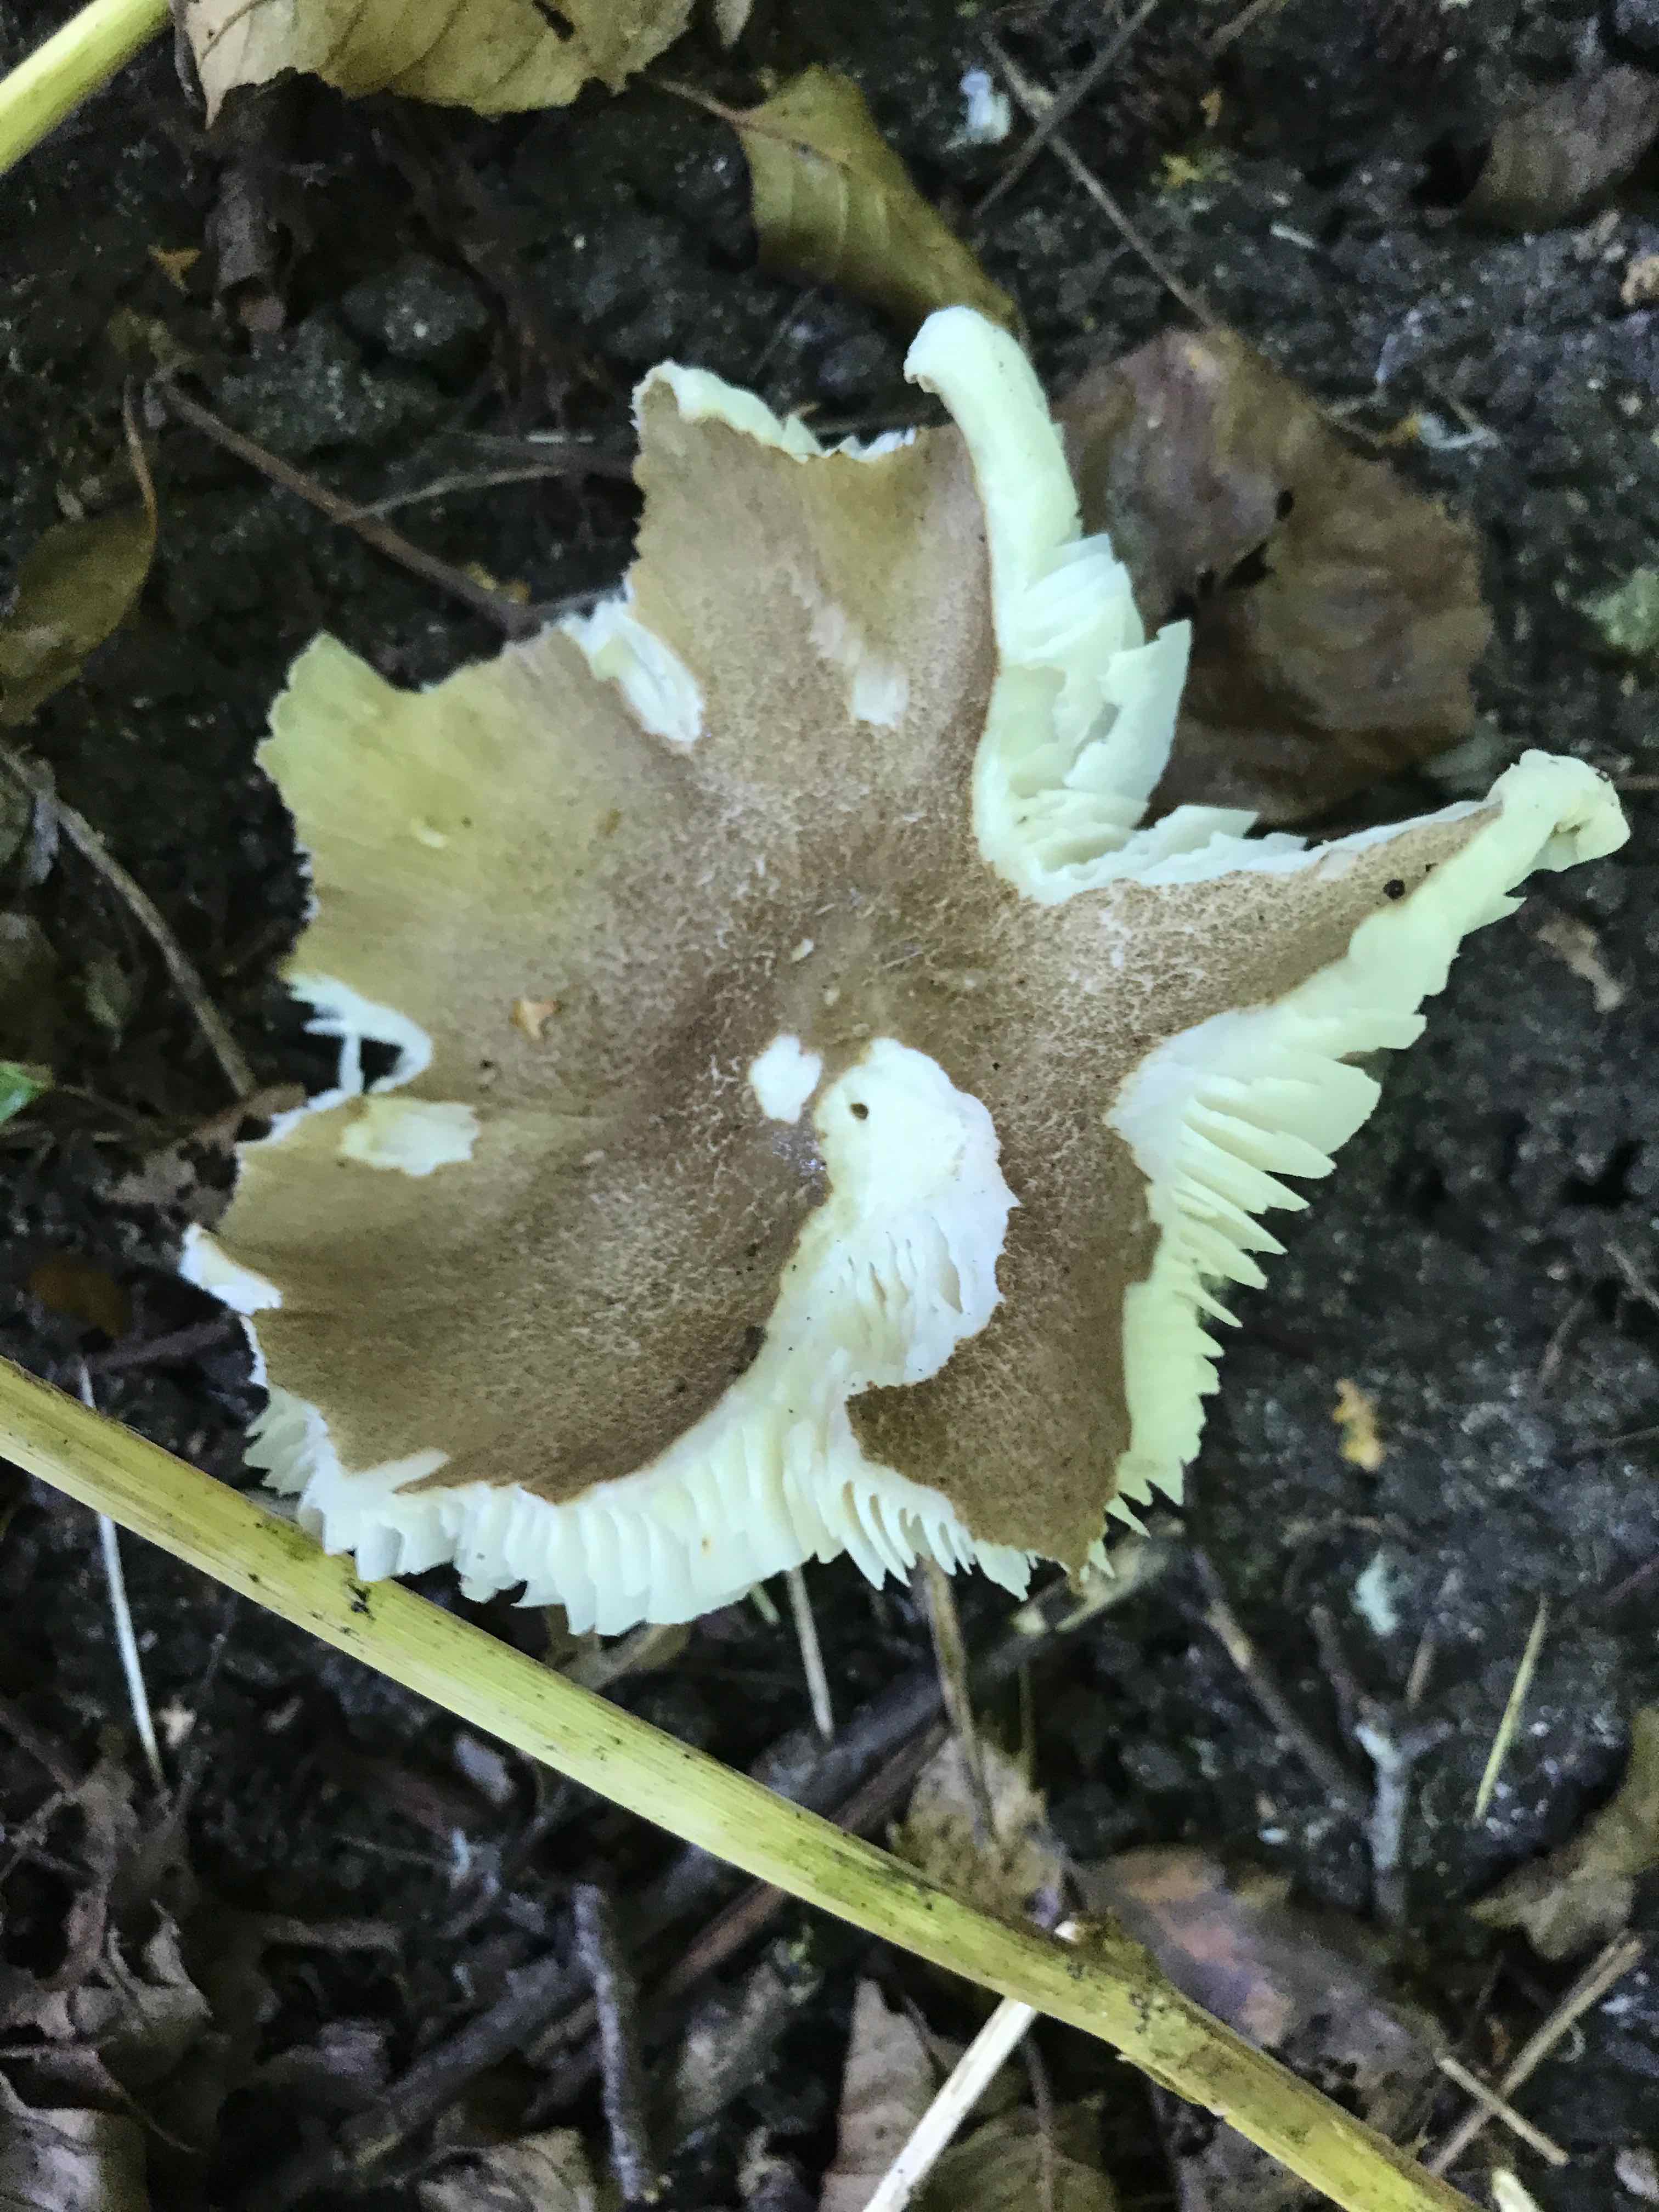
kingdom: Fungi
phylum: Basidiomycota
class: Agaricomycetes
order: Agaricales
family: Tricholomataceae
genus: Megacollybia
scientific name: Megacollybia platyphylla
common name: bredbladet væbnerhat
